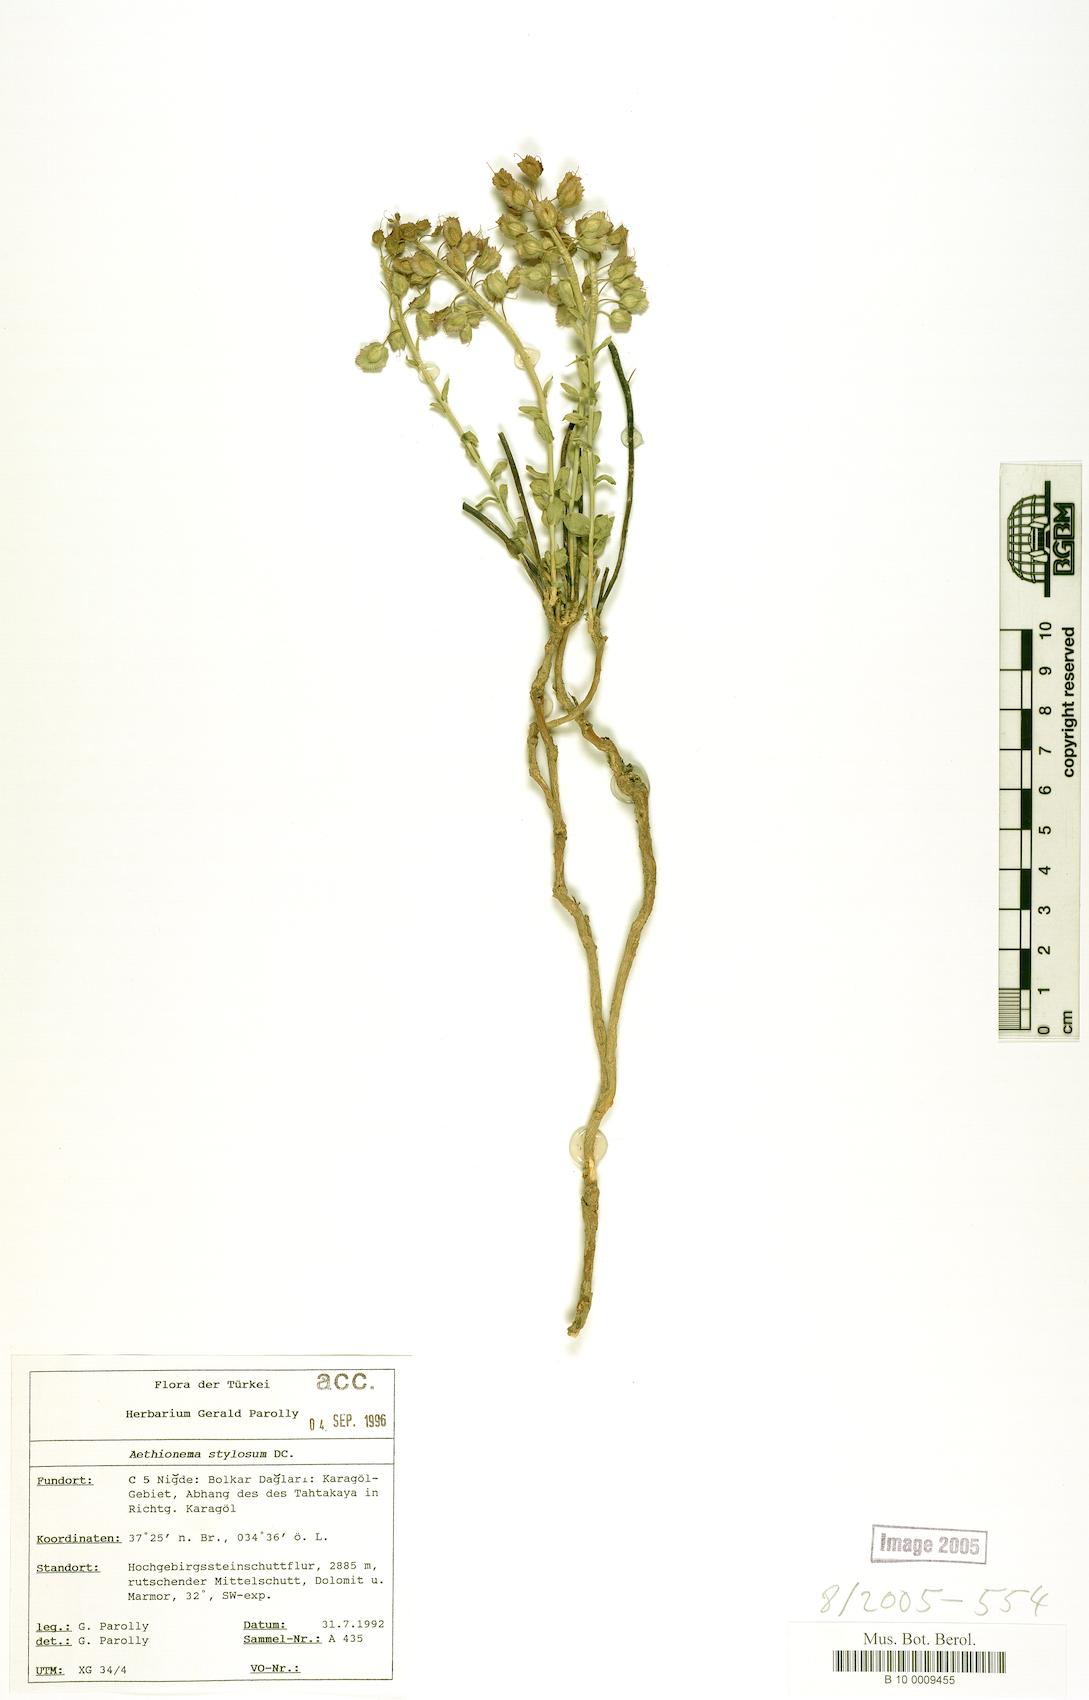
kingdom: Plantae
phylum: Tracheophyta
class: Magnoliopsida
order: Brassicales
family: Brassicaceae
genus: Aethionema
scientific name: Aethionema stylosum
